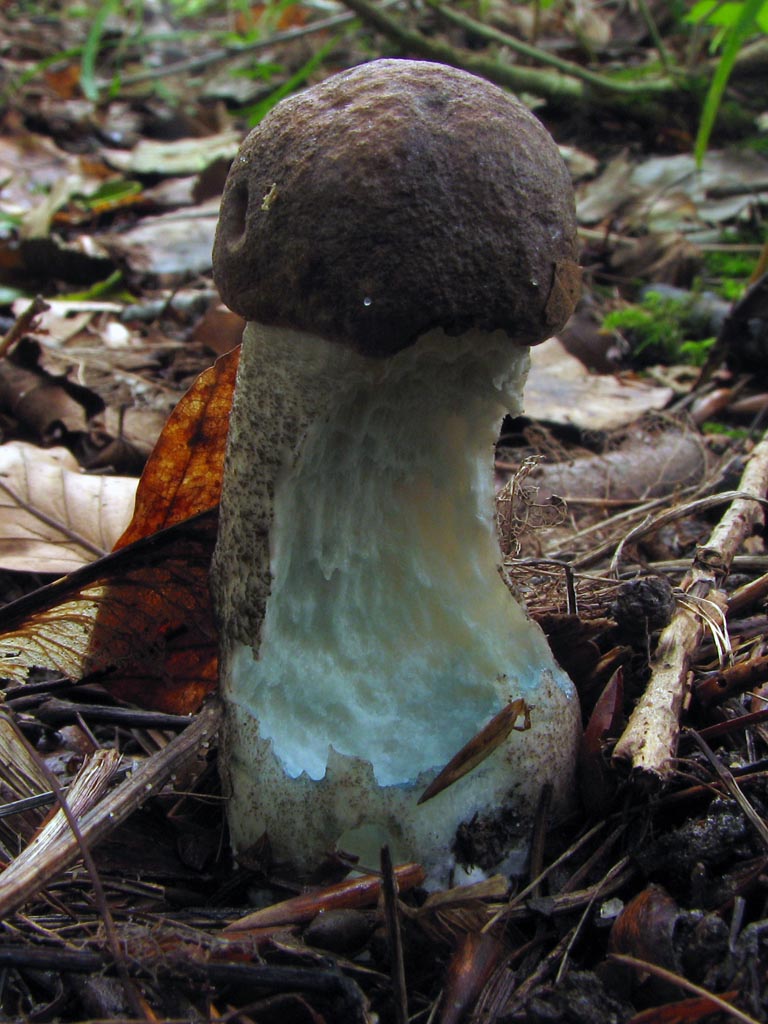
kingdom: Fungi
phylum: Basidiomycota
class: Agaricomycetes
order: Boletales
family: Boletaceae
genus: Leccinum
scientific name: Leccinum duriusculum
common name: poppel-skælrørhat
